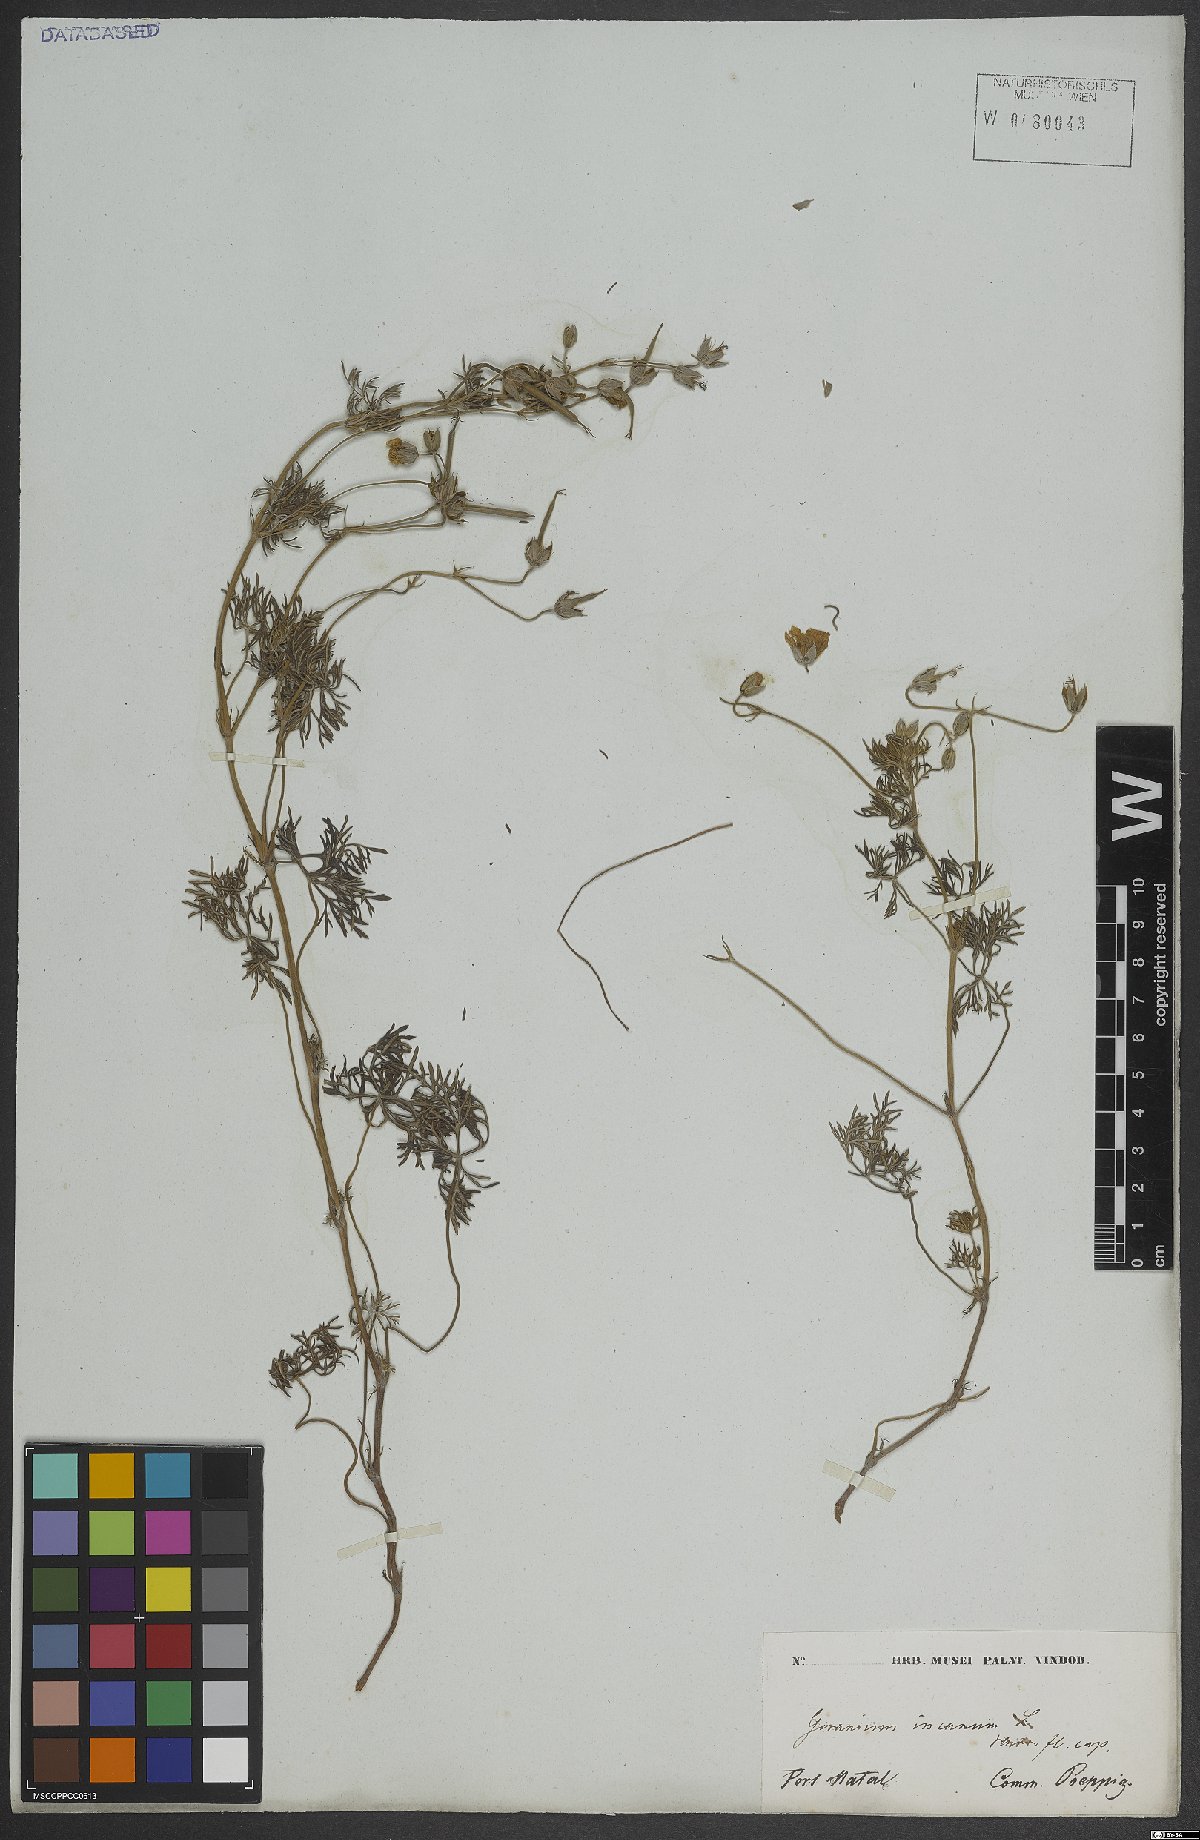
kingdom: Plantae
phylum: Tracheophyta
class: Magnoliopsida
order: Geraniales
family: Geraniaceae
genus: Geranium
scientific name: Geranium incanum
